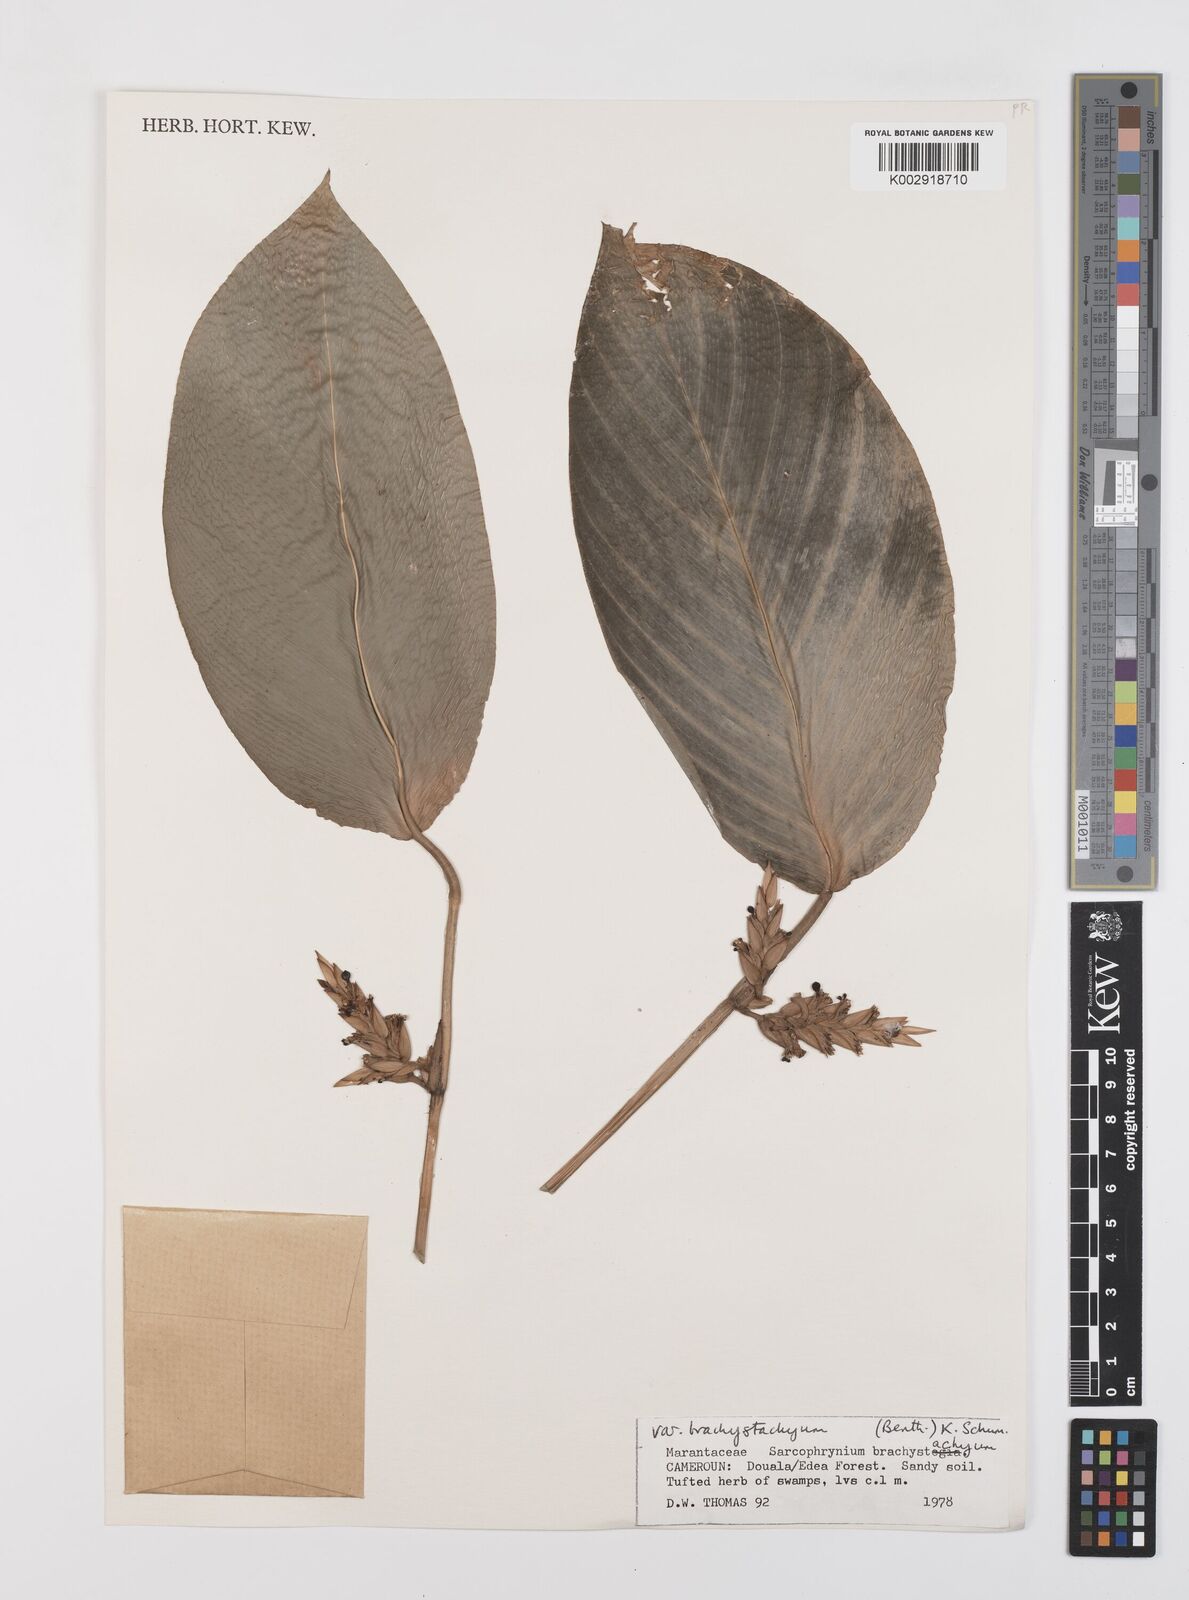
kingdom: Plantae
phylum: Tracheophyta
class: Liliopsida
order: Zingiberales
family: Marantaceae
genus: Sarcophrynium
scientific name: Sarcophrynium brachystachyum
